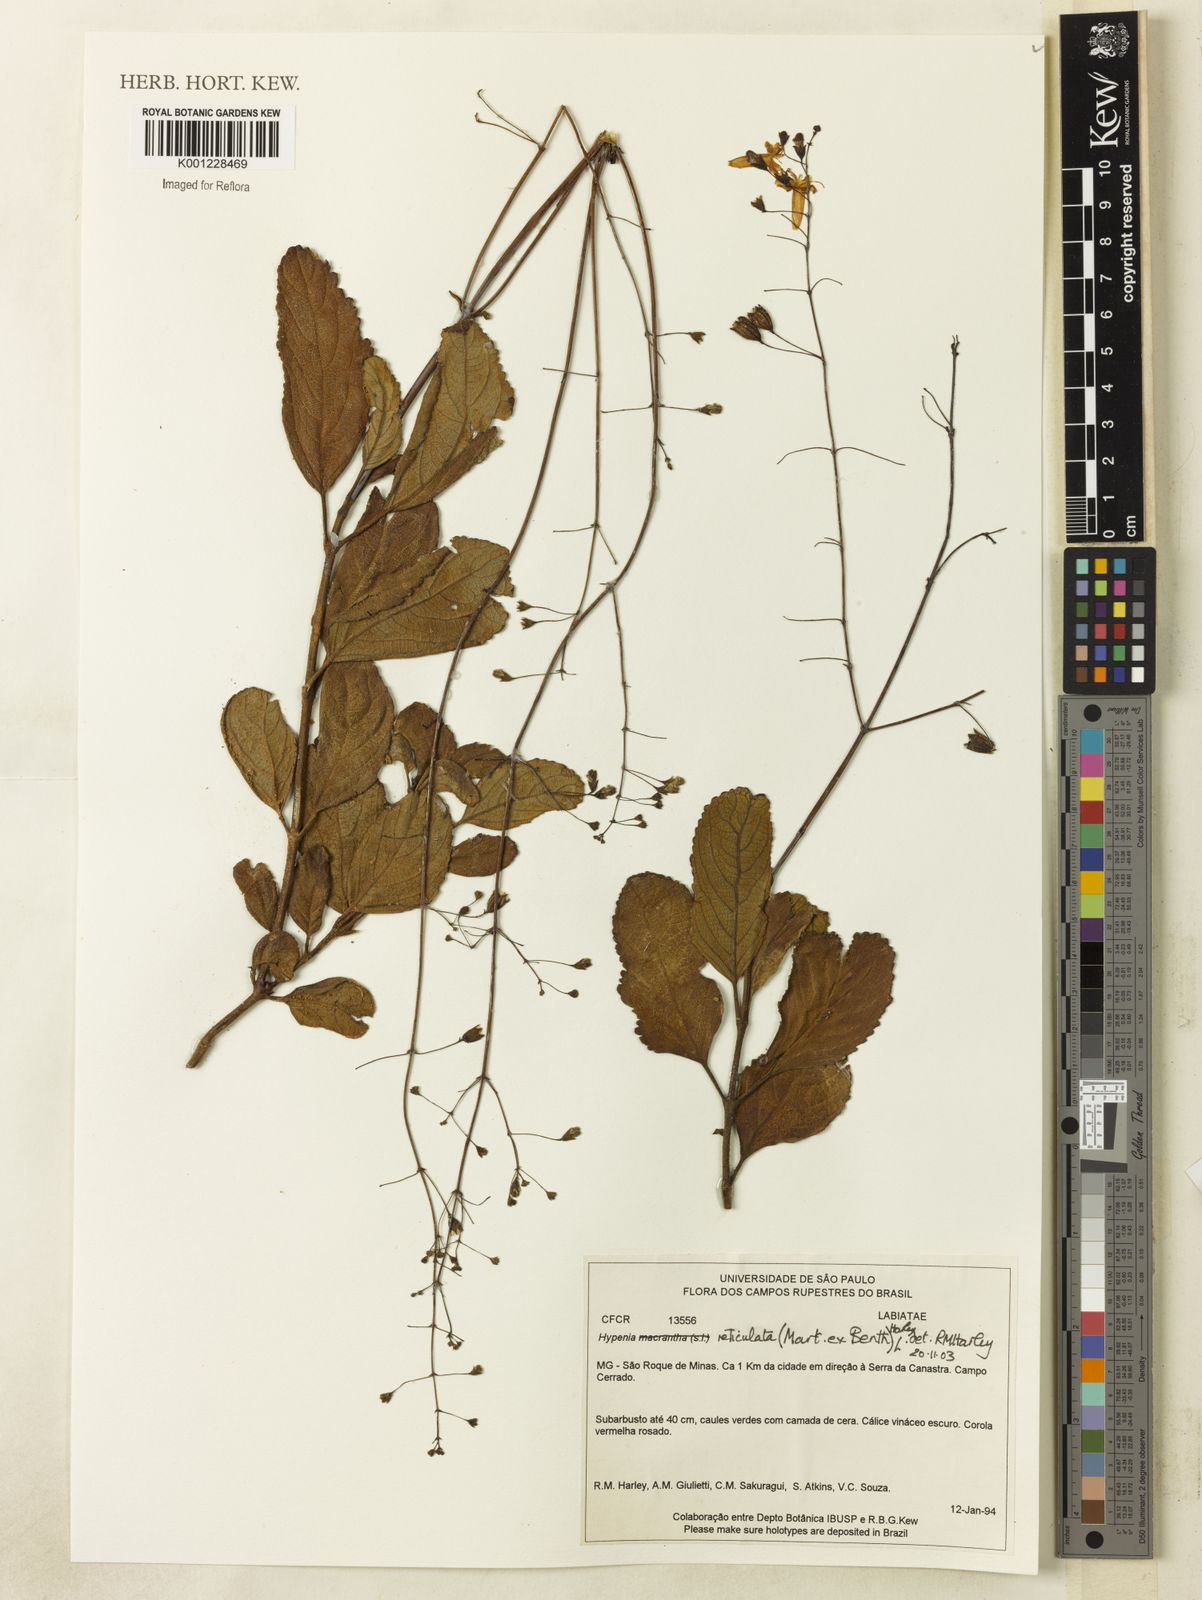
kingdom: Plantae
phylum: Tracheophyta
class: Magnoliopsida
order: Lamiales
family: Lamiaceae
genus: Hypenia
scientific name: Hypenia reticulata
